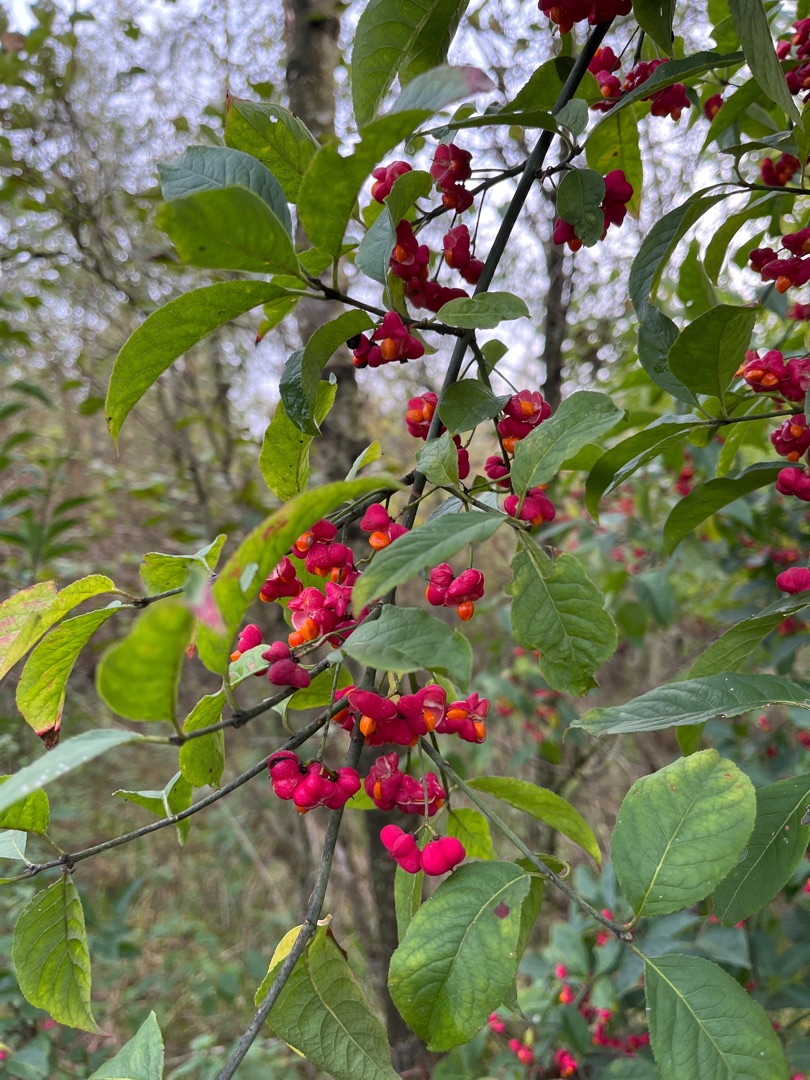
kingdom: Plantae
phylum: Tracheophyta
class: Magnoliopsida
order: Celastrales
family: Celastraceae
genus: Euonymus
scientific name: Euonymus europaeus
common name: Benved
